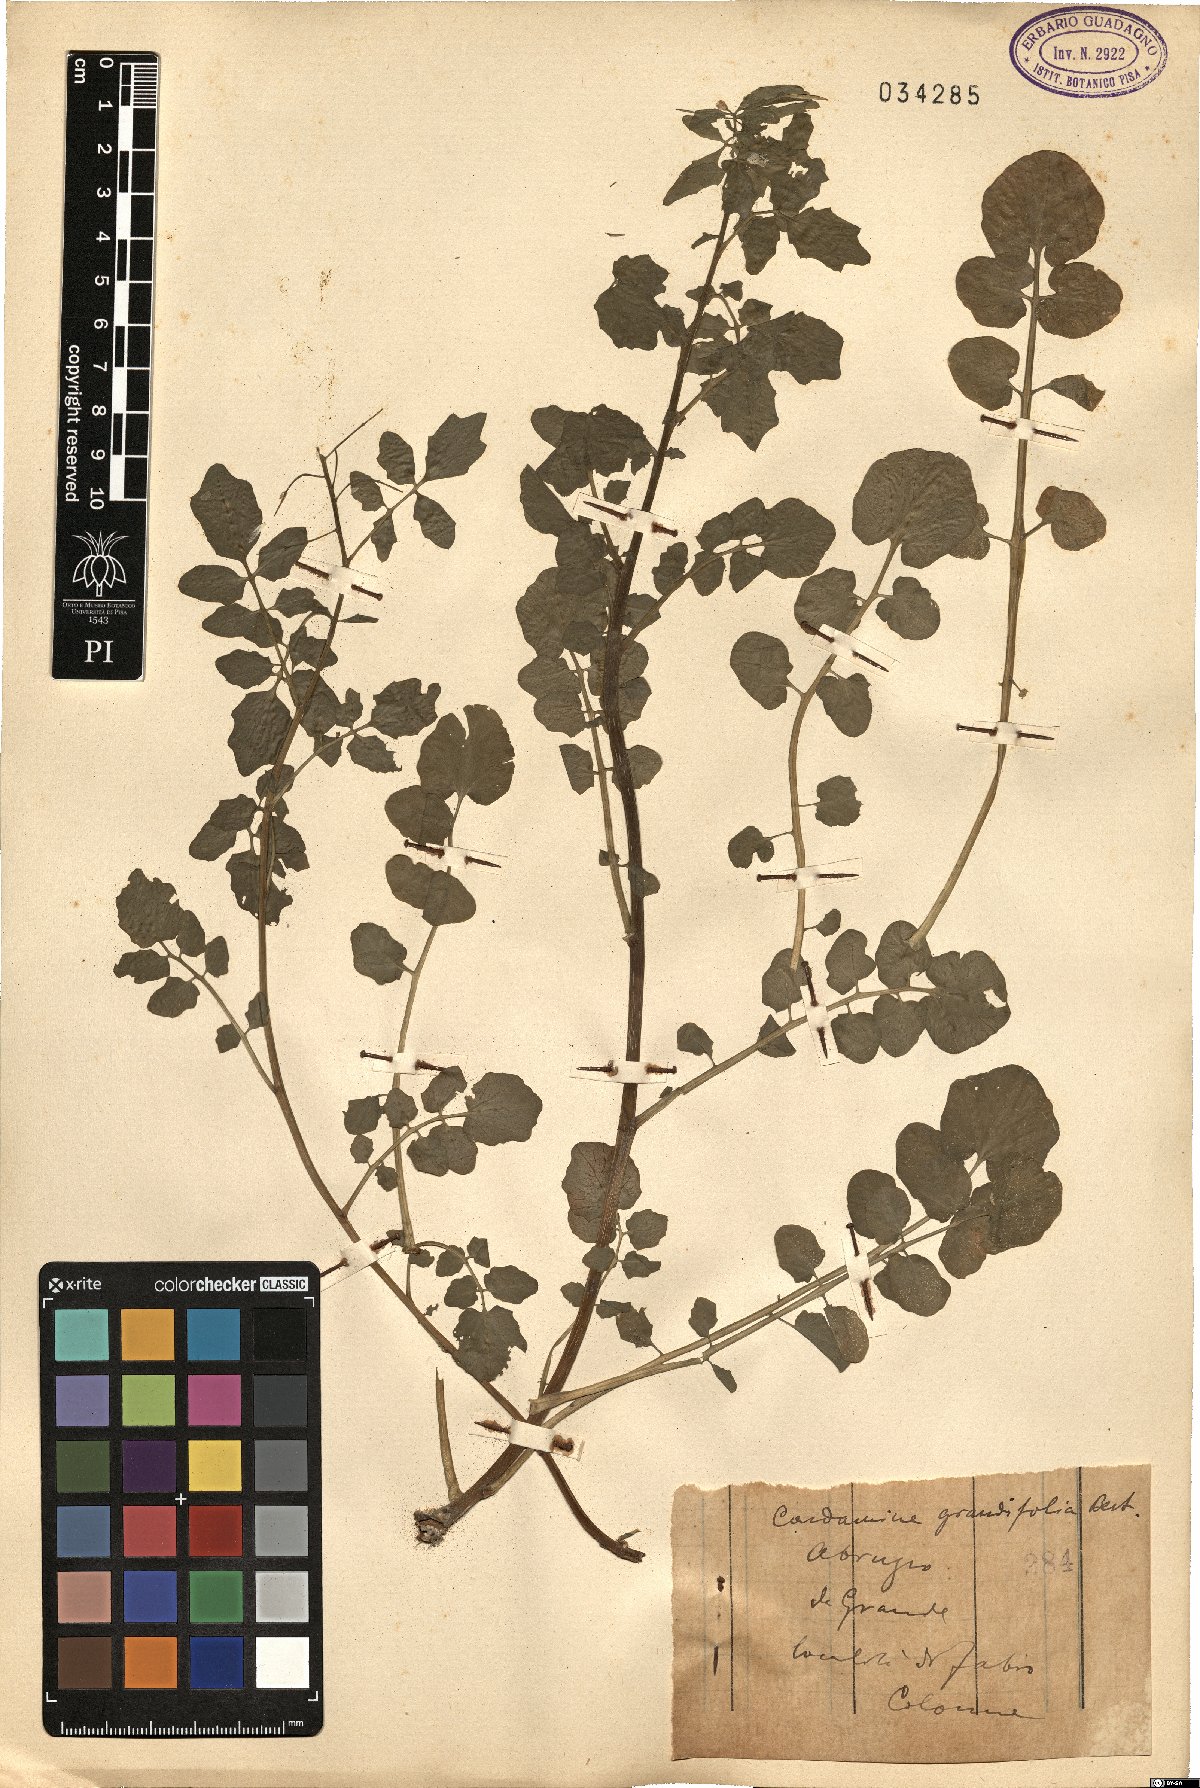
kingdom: Plantae
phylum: Tracheophyta
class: Magnoliopsida
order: Brassicales
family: Brassicaceae
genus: Cardamine
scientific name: Cardamine pratensis
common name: Cuckoo flower
